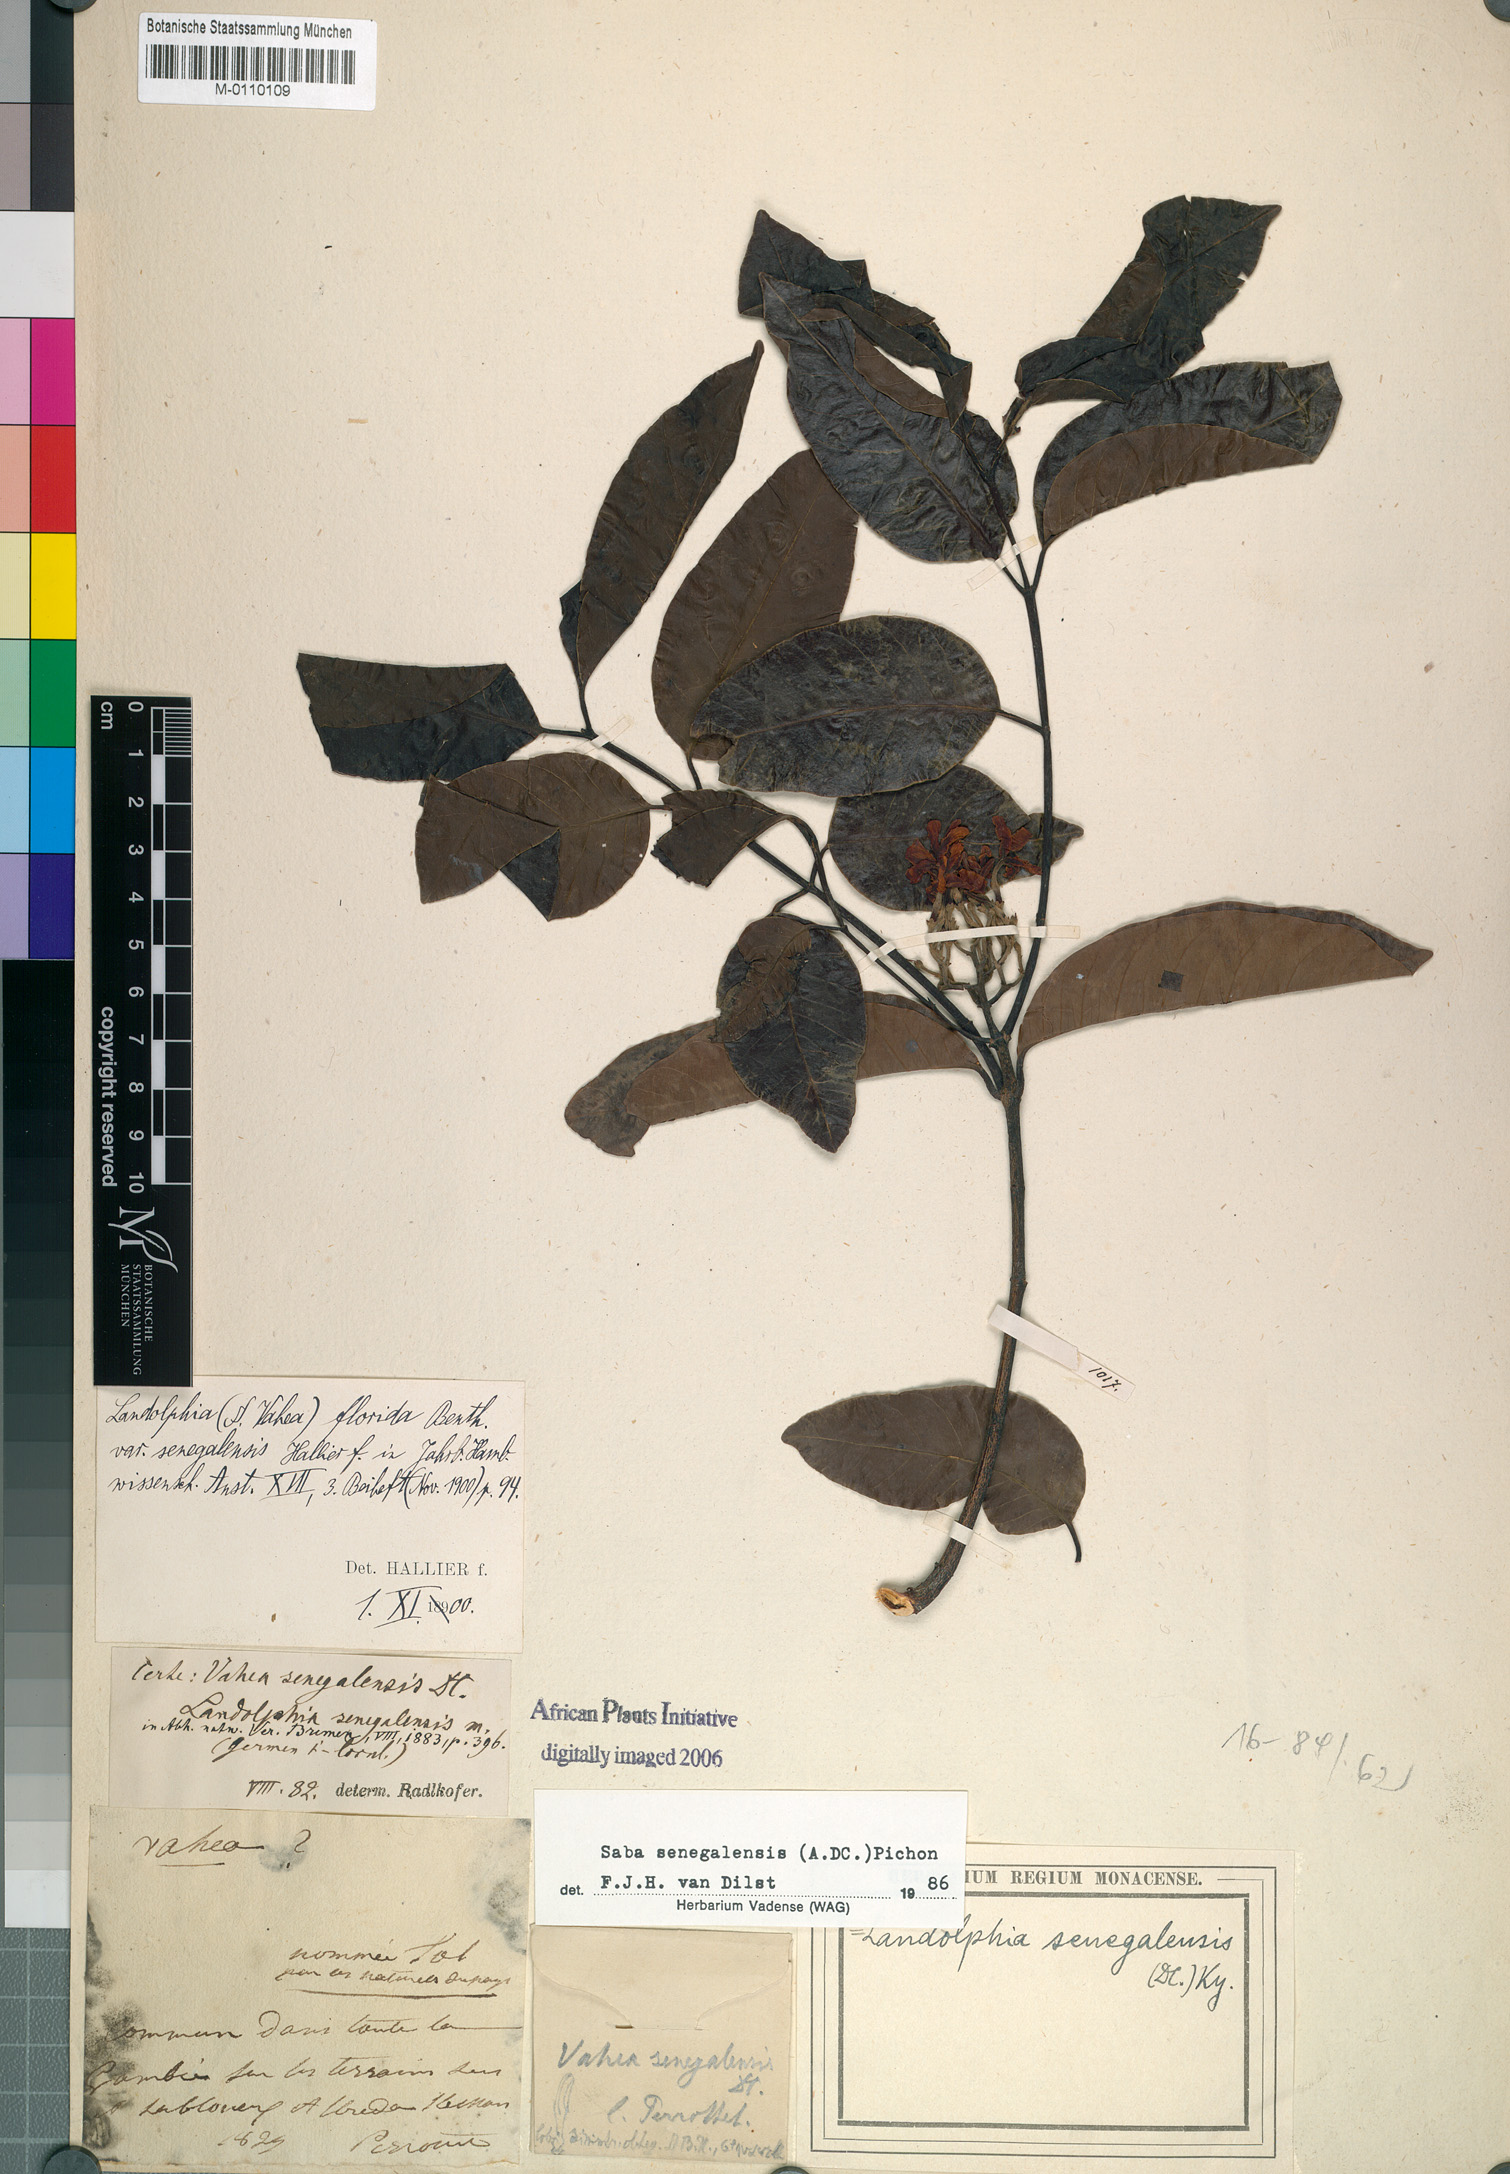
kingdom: Plantae
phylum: Tracheophyta
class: Magnoliopsida
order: Gentianales
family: Apocynaceae
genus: Saba
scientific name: Saba senegalensis
